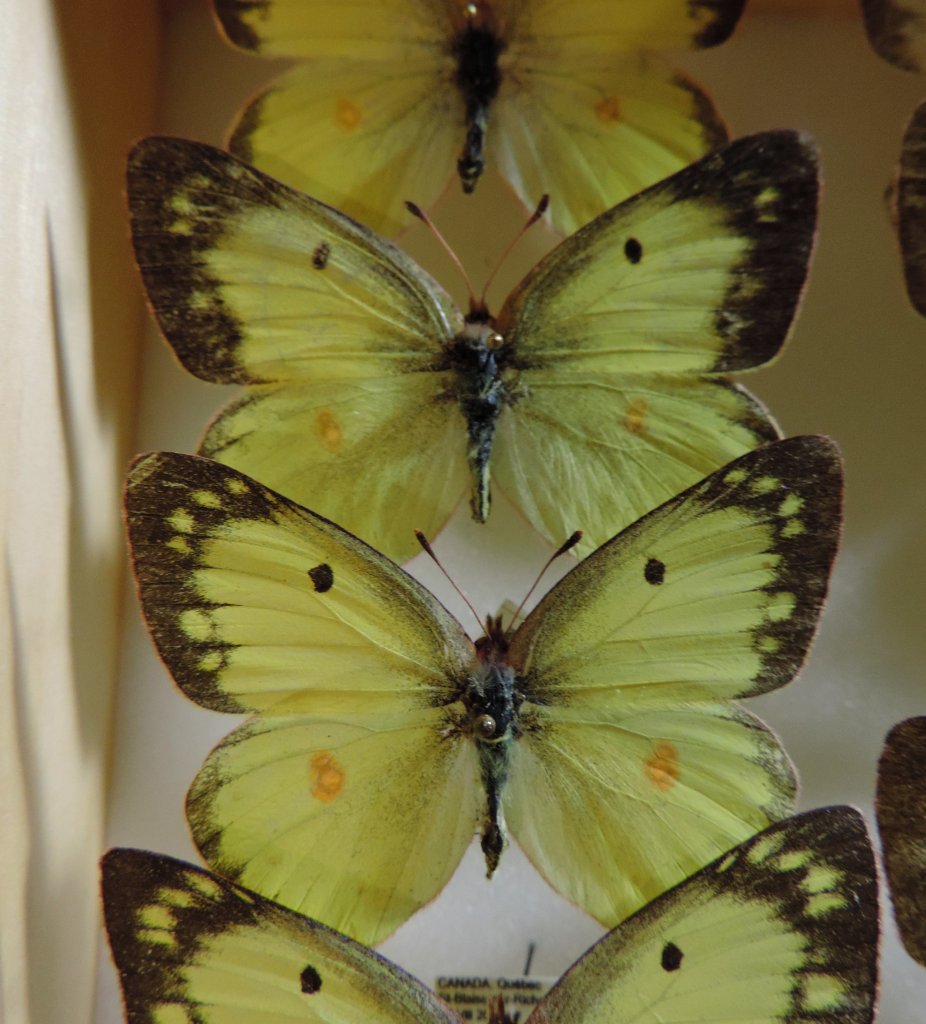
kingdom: Animalia
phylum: Arthropoda
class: Insecta
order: Lepidoptera
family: Pieridae
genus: Colias
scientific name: Colias philodice
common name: Clouded Sulphur
